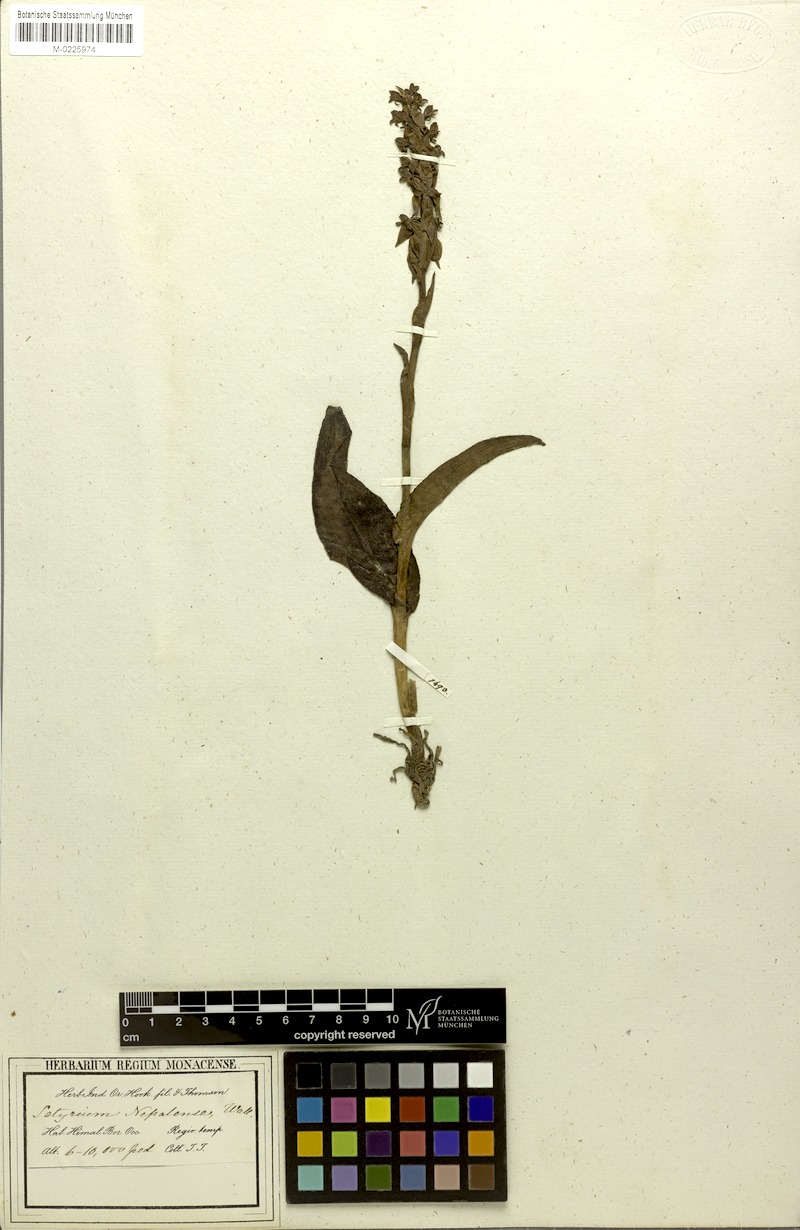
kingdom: Plantae
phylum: Tracheophyta
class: Liliopsida
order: Asparagales
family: Orchidaceae
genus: Satyrium
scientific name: Satyrium nepalense
